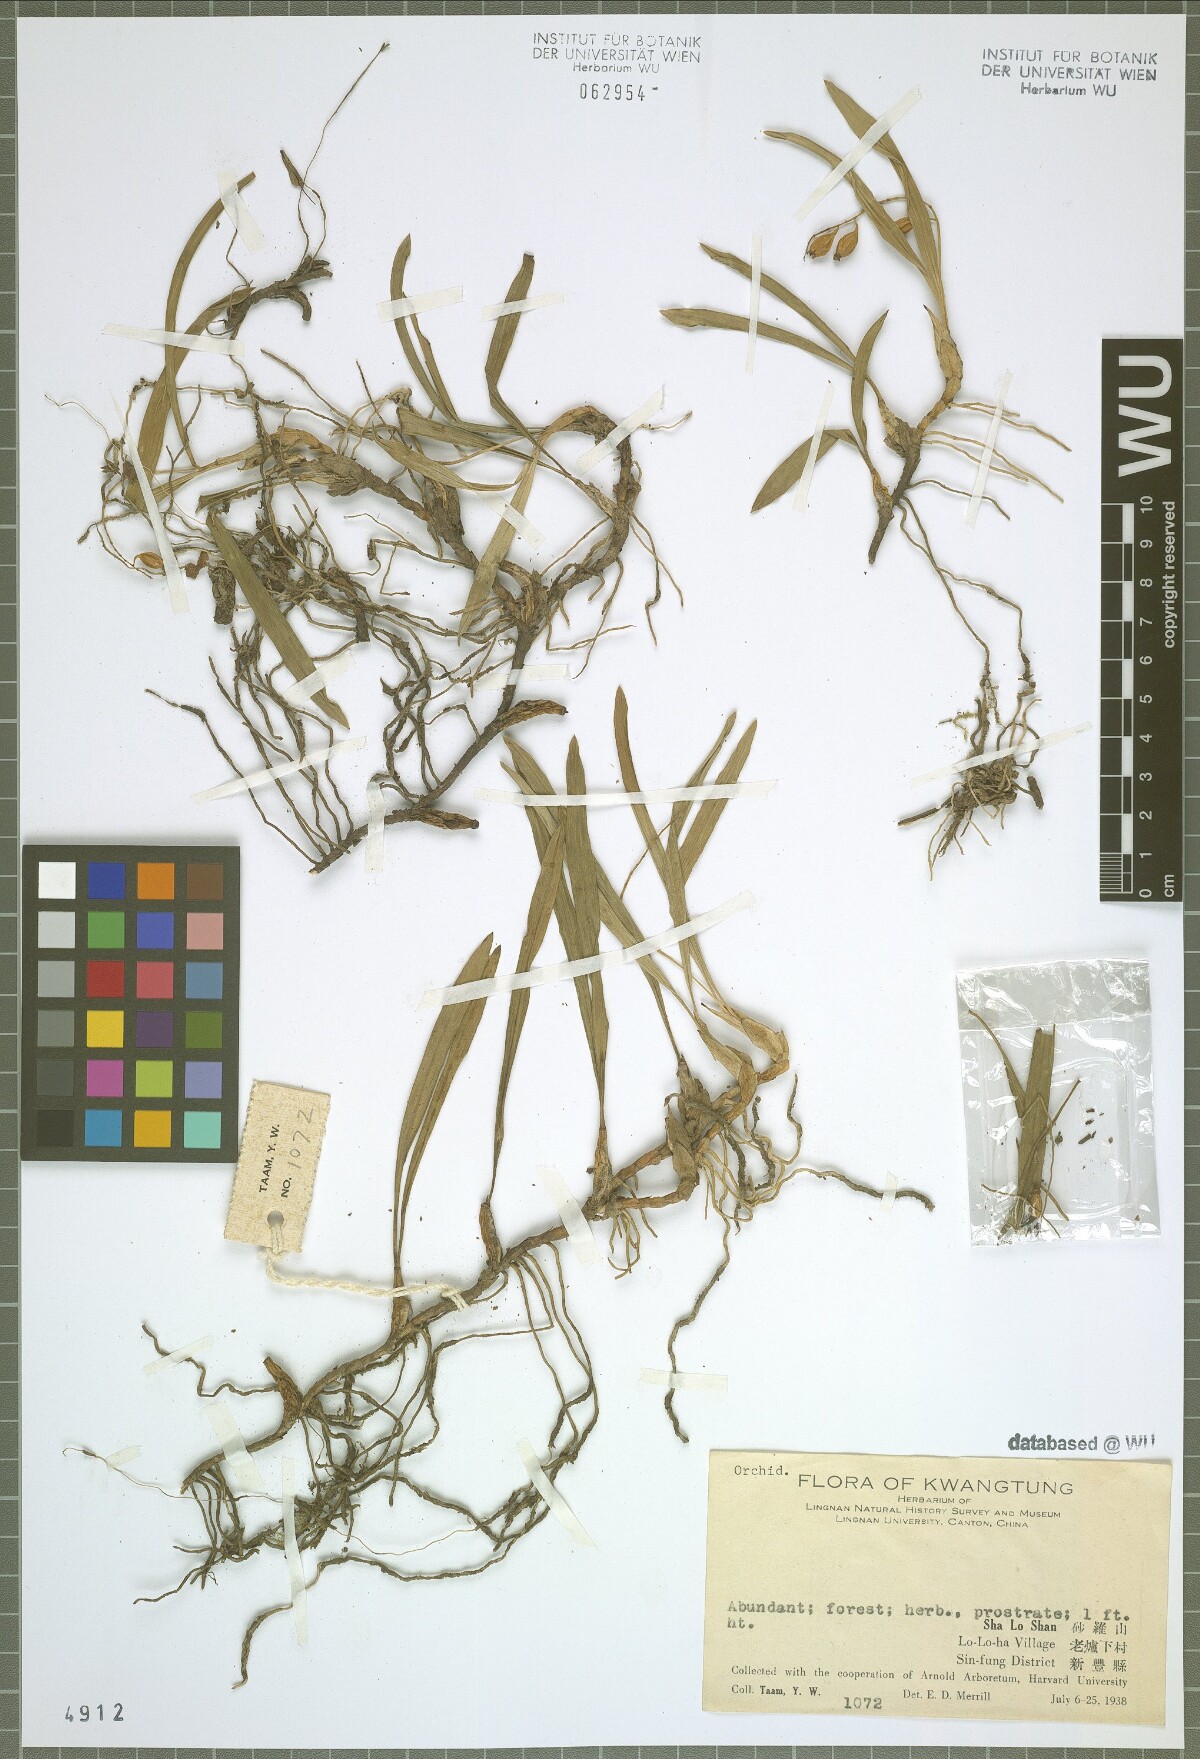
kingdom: Plantae
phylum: Tracheophyta
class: Liliopsida
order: Asparagales
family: Orchidaceae
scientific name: Orchidaceae
